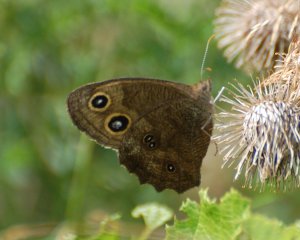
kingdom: Animalia
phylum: Arthropoda
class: Insecta
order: Lepidoptera
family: Nymphalidae
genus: Cercyonis
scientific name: Cercyonis pegala
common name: Common Wood-Nymph
